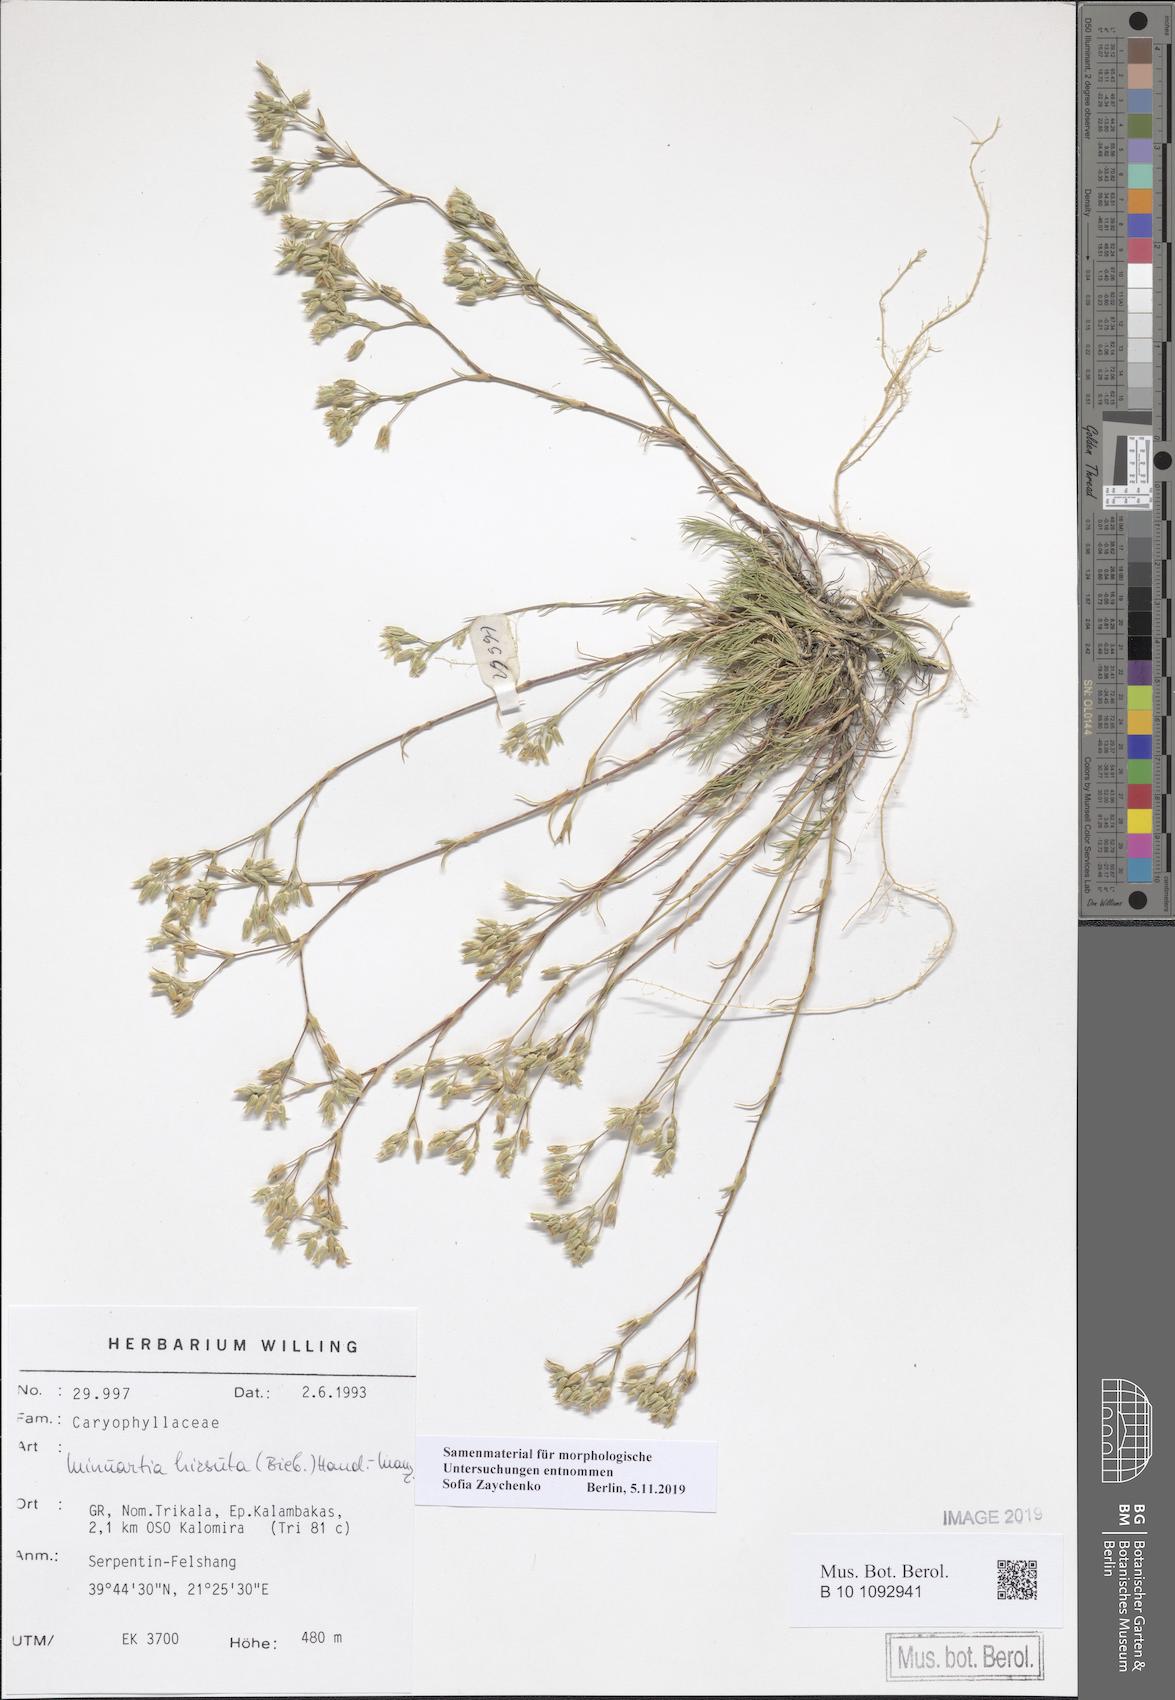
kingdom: Plantae
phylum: Tracheophyta
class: Magnoliopsida
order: Caryophyllales
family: Caryophyllaceae
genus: Minuartia
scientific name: Minuartia hirsuta
